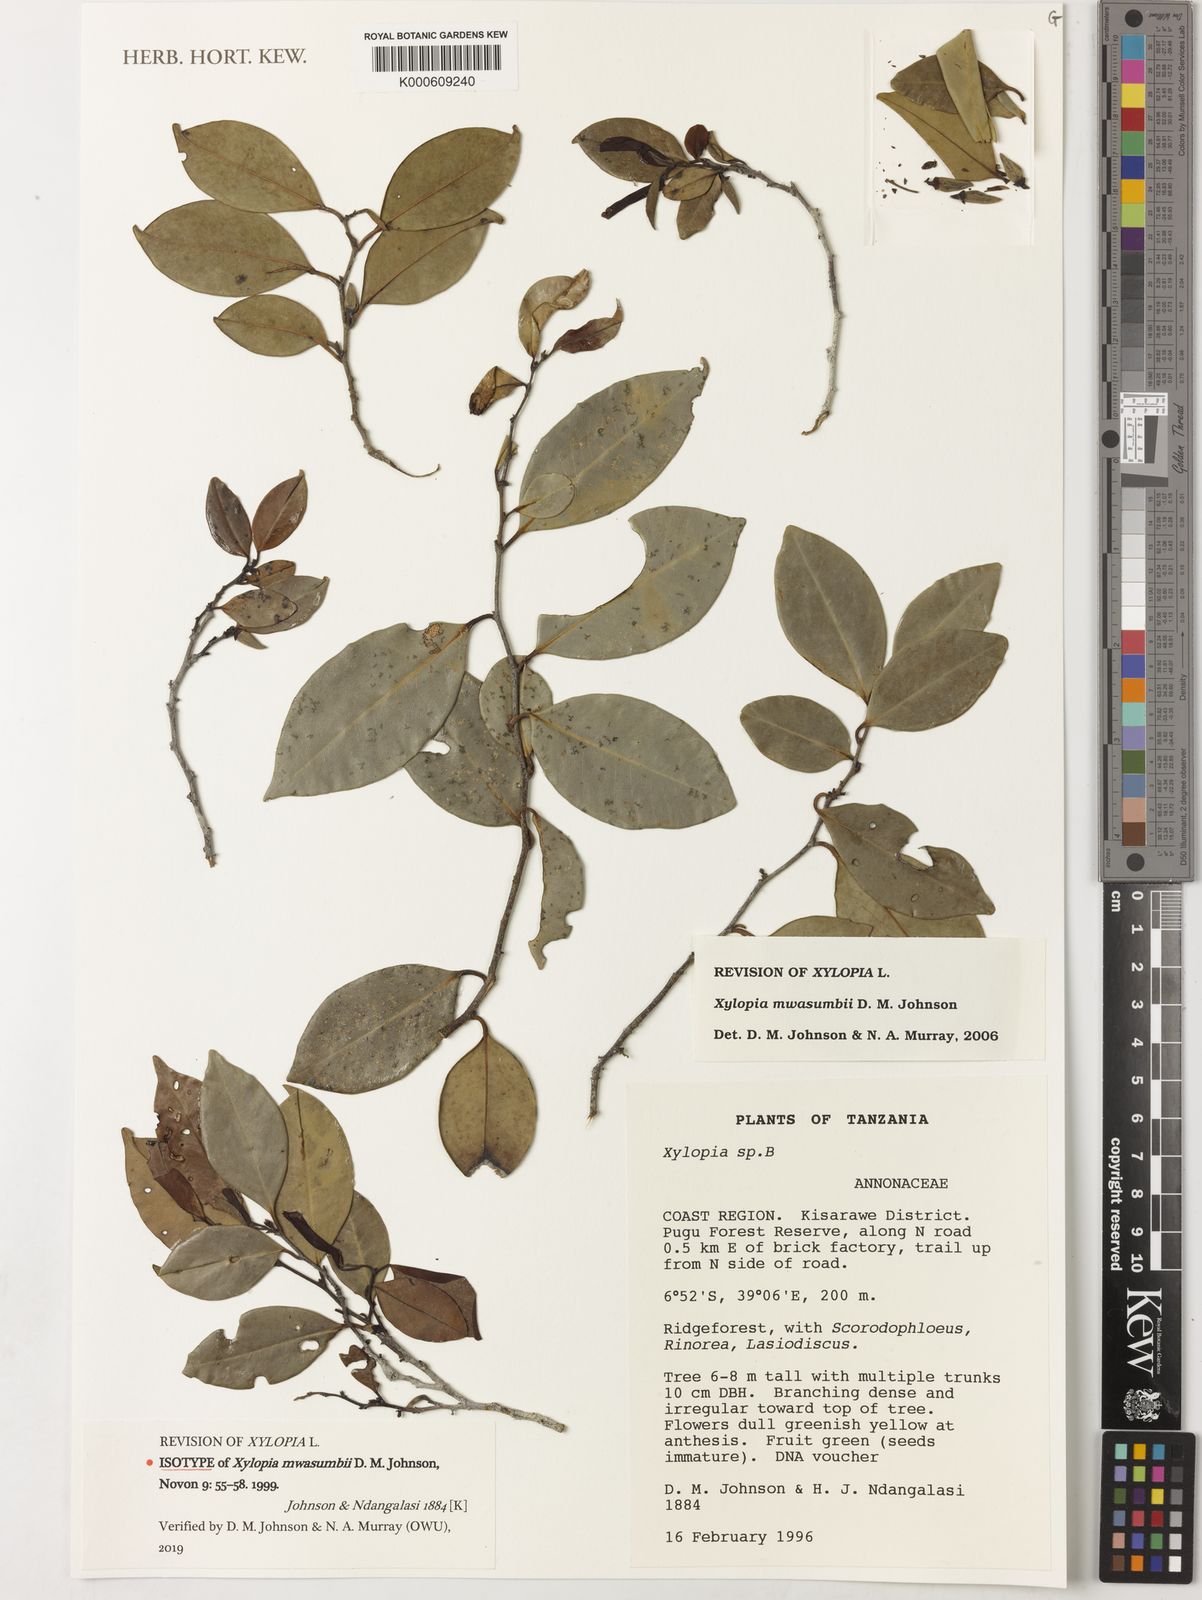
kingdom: Plantae
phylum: Tracheophyta
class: Magnoliopsida
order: Magnoliales
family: Annonaceae
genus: Xylopia
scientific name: Xylopia mwasumbii
